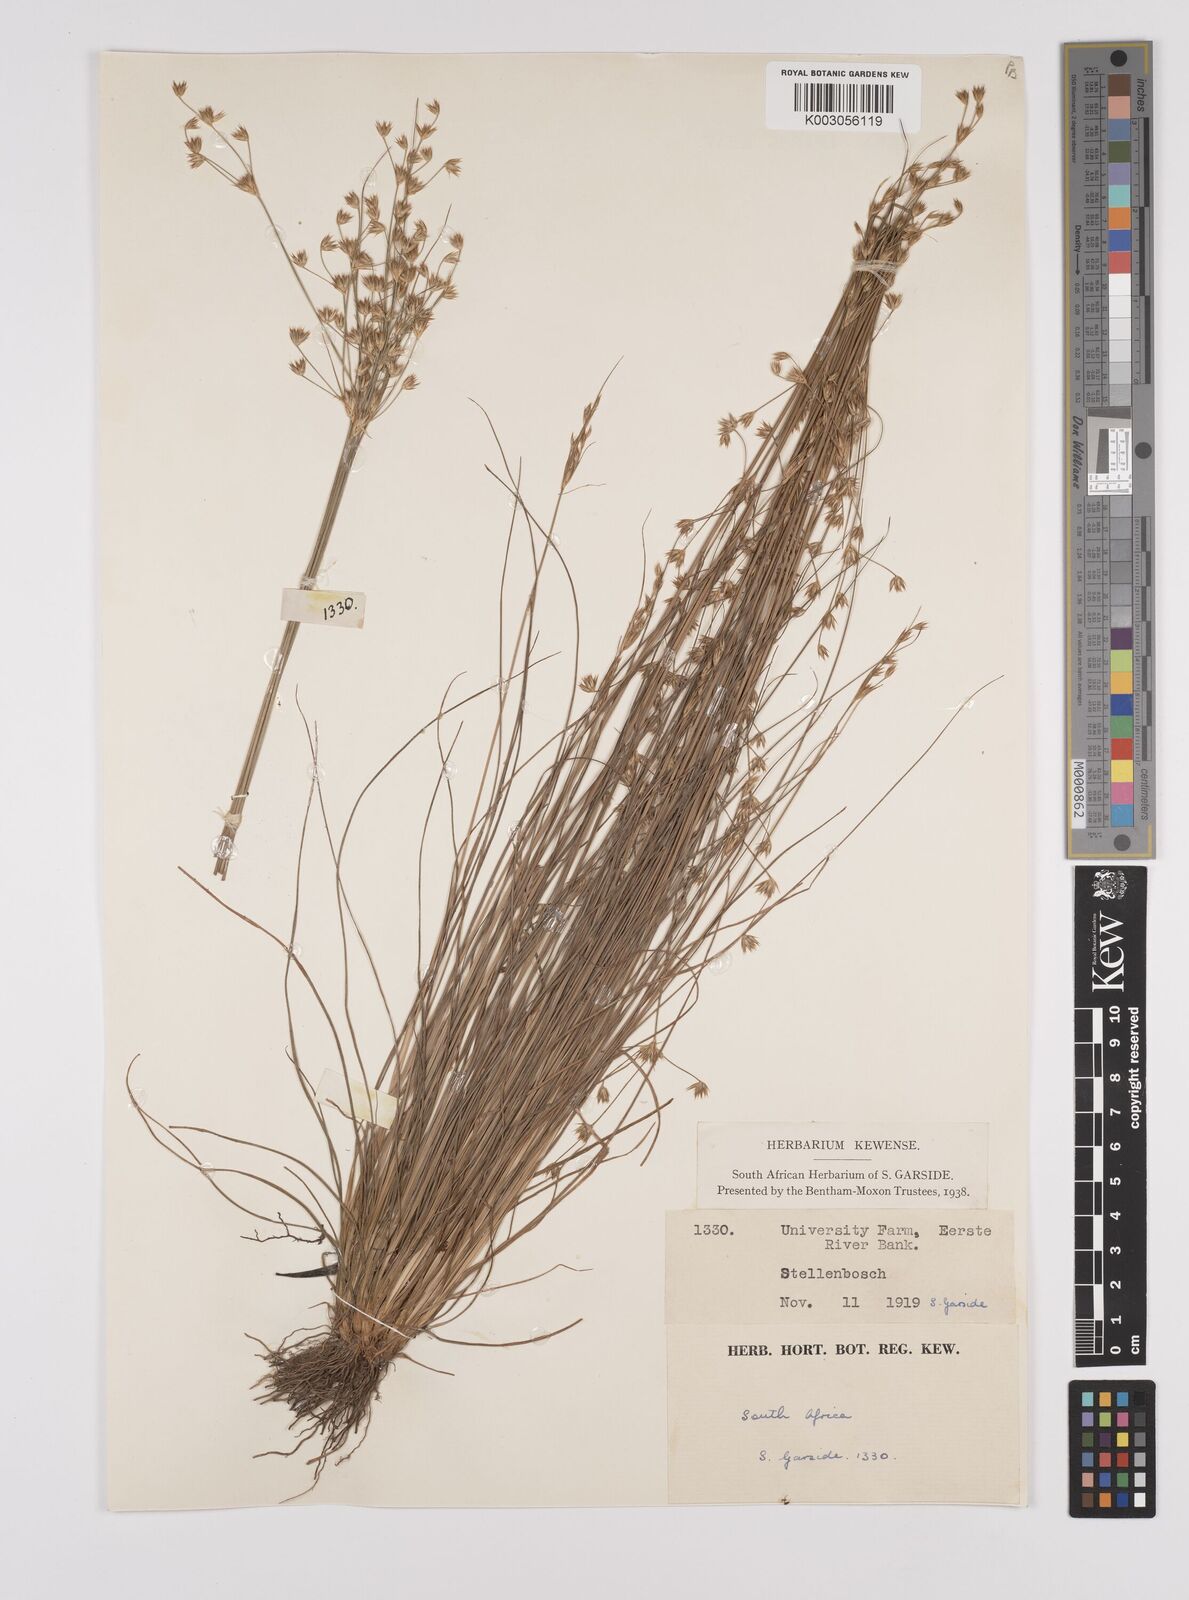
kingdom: Plantae
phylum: Tracheophyta
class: Liliopsida
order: Poales
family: Juncaceae
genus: Juncus
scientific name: Juncus
